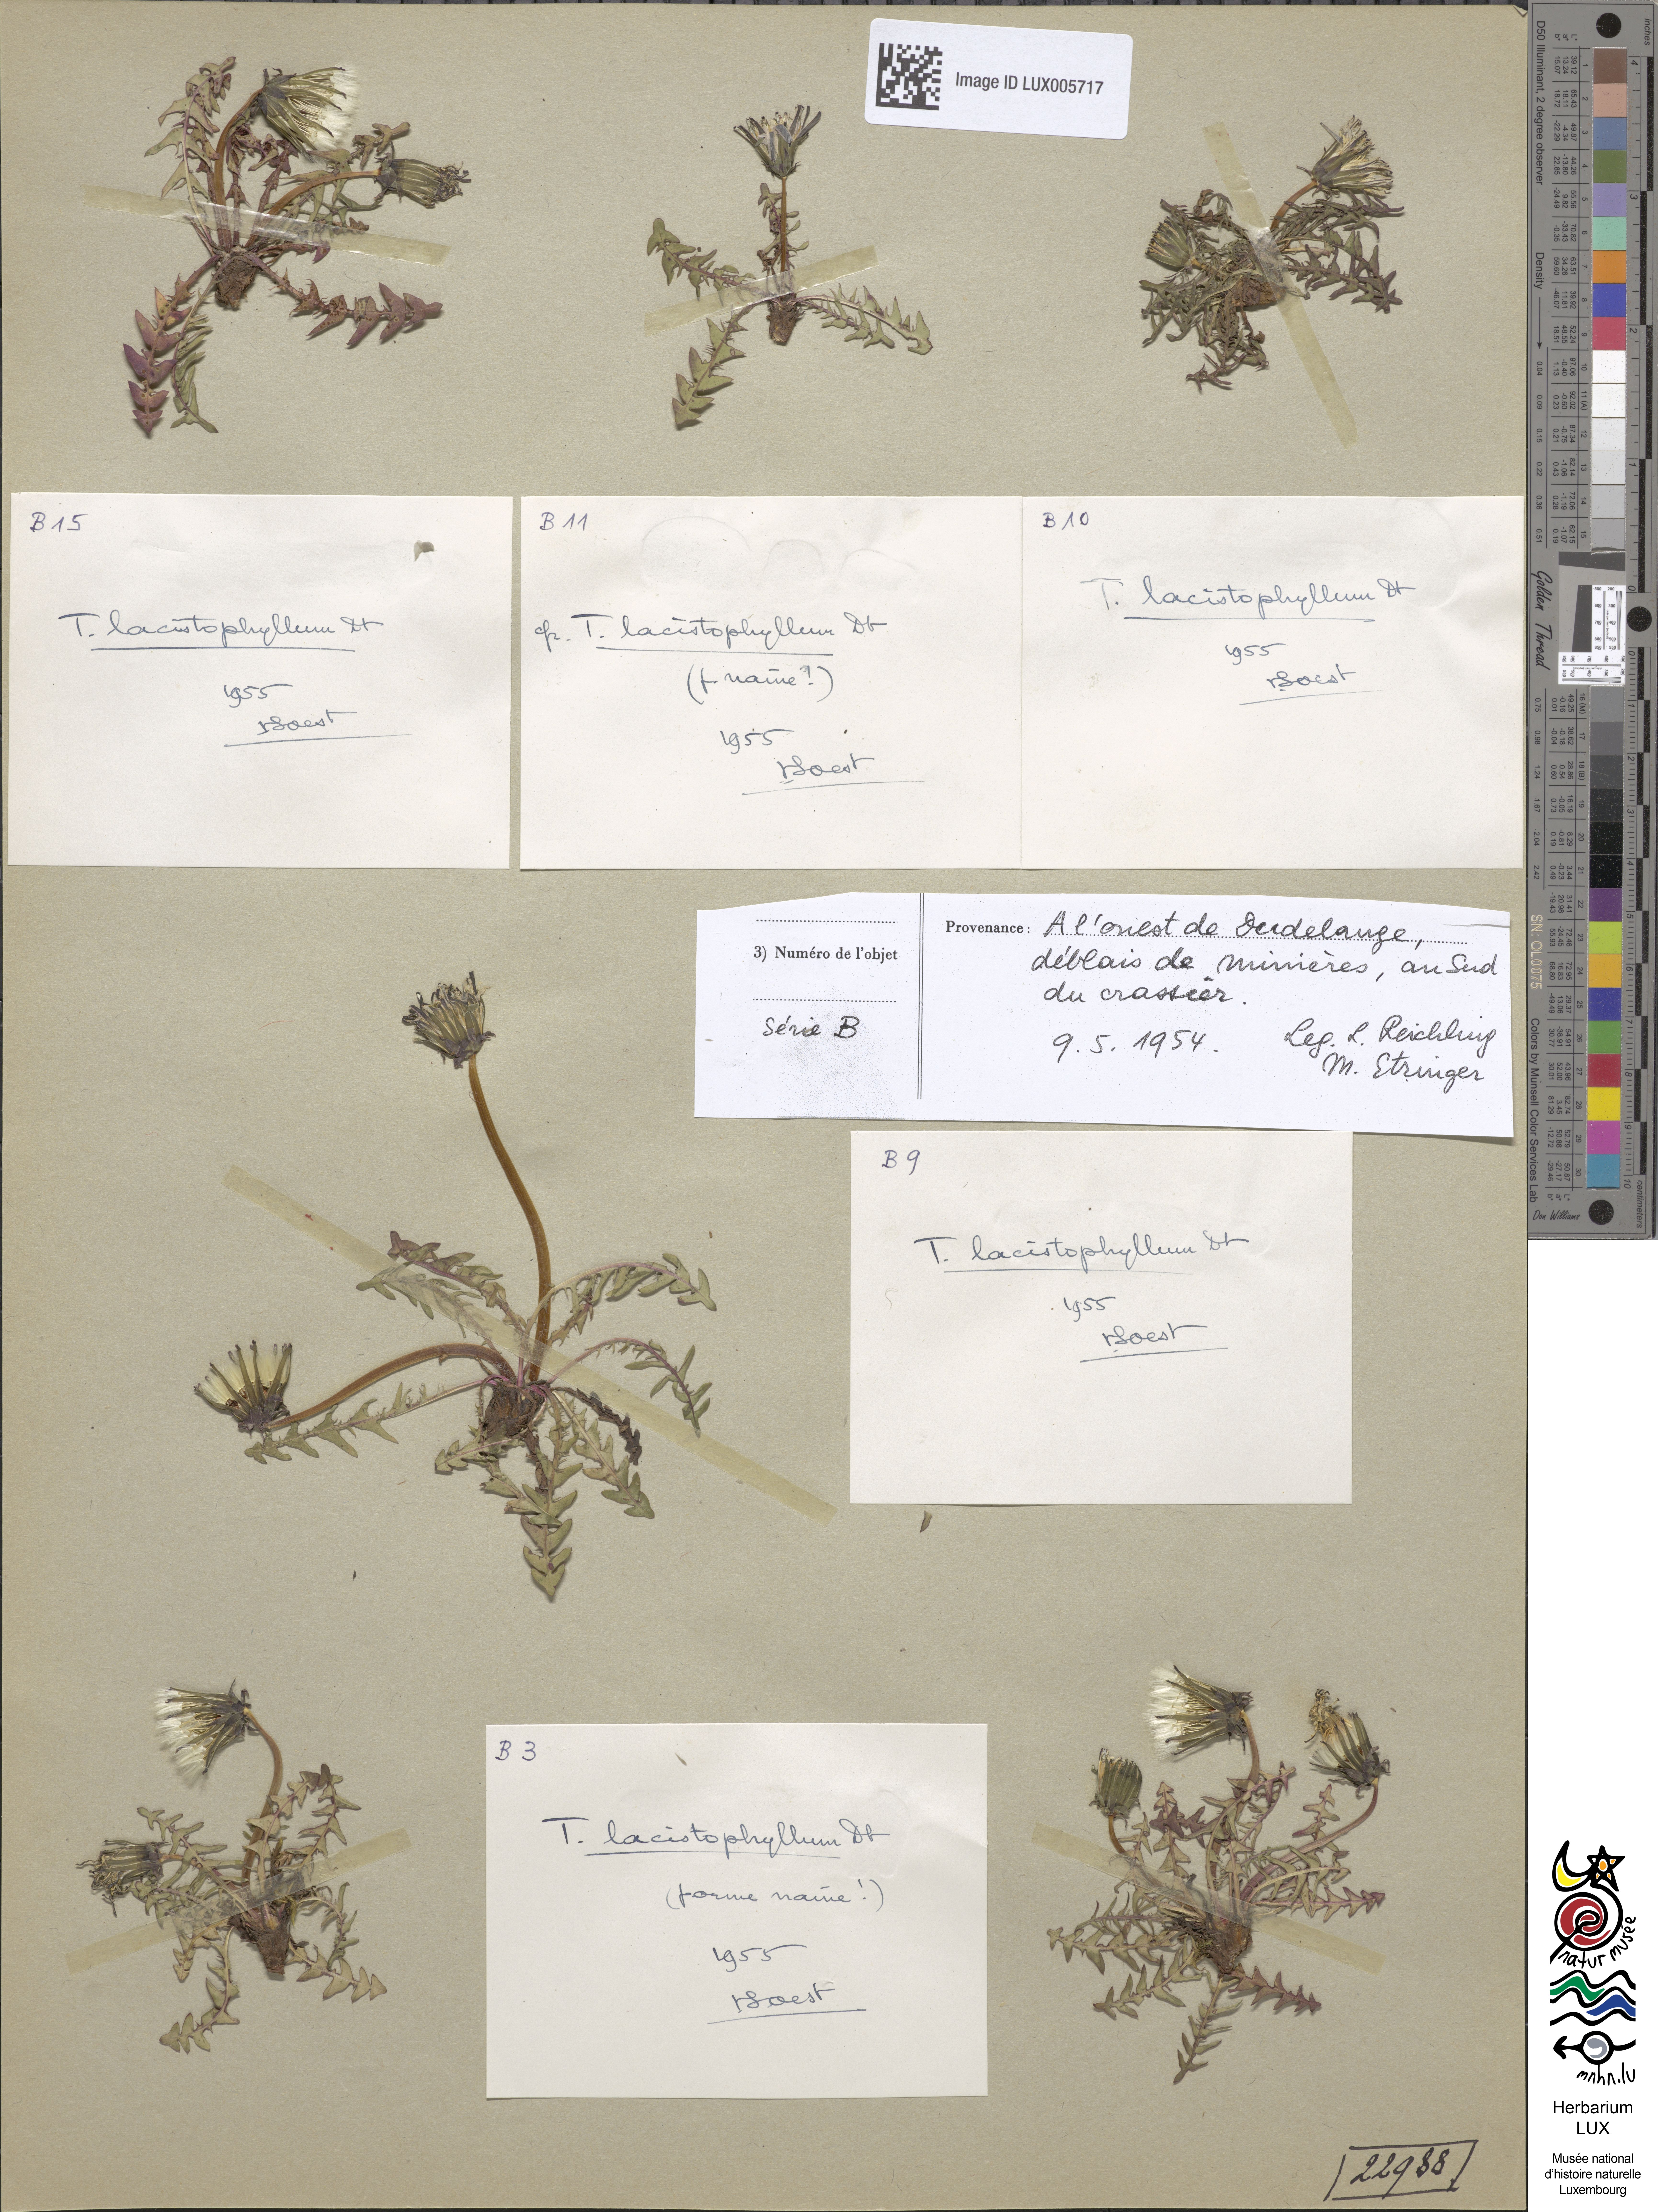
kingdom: Plantae
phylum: Tracheophyta
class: Magnoliopsida
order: Asterales
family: Asteraceae
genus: Taraxacum
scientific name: Taraxacum lacistophyllum
